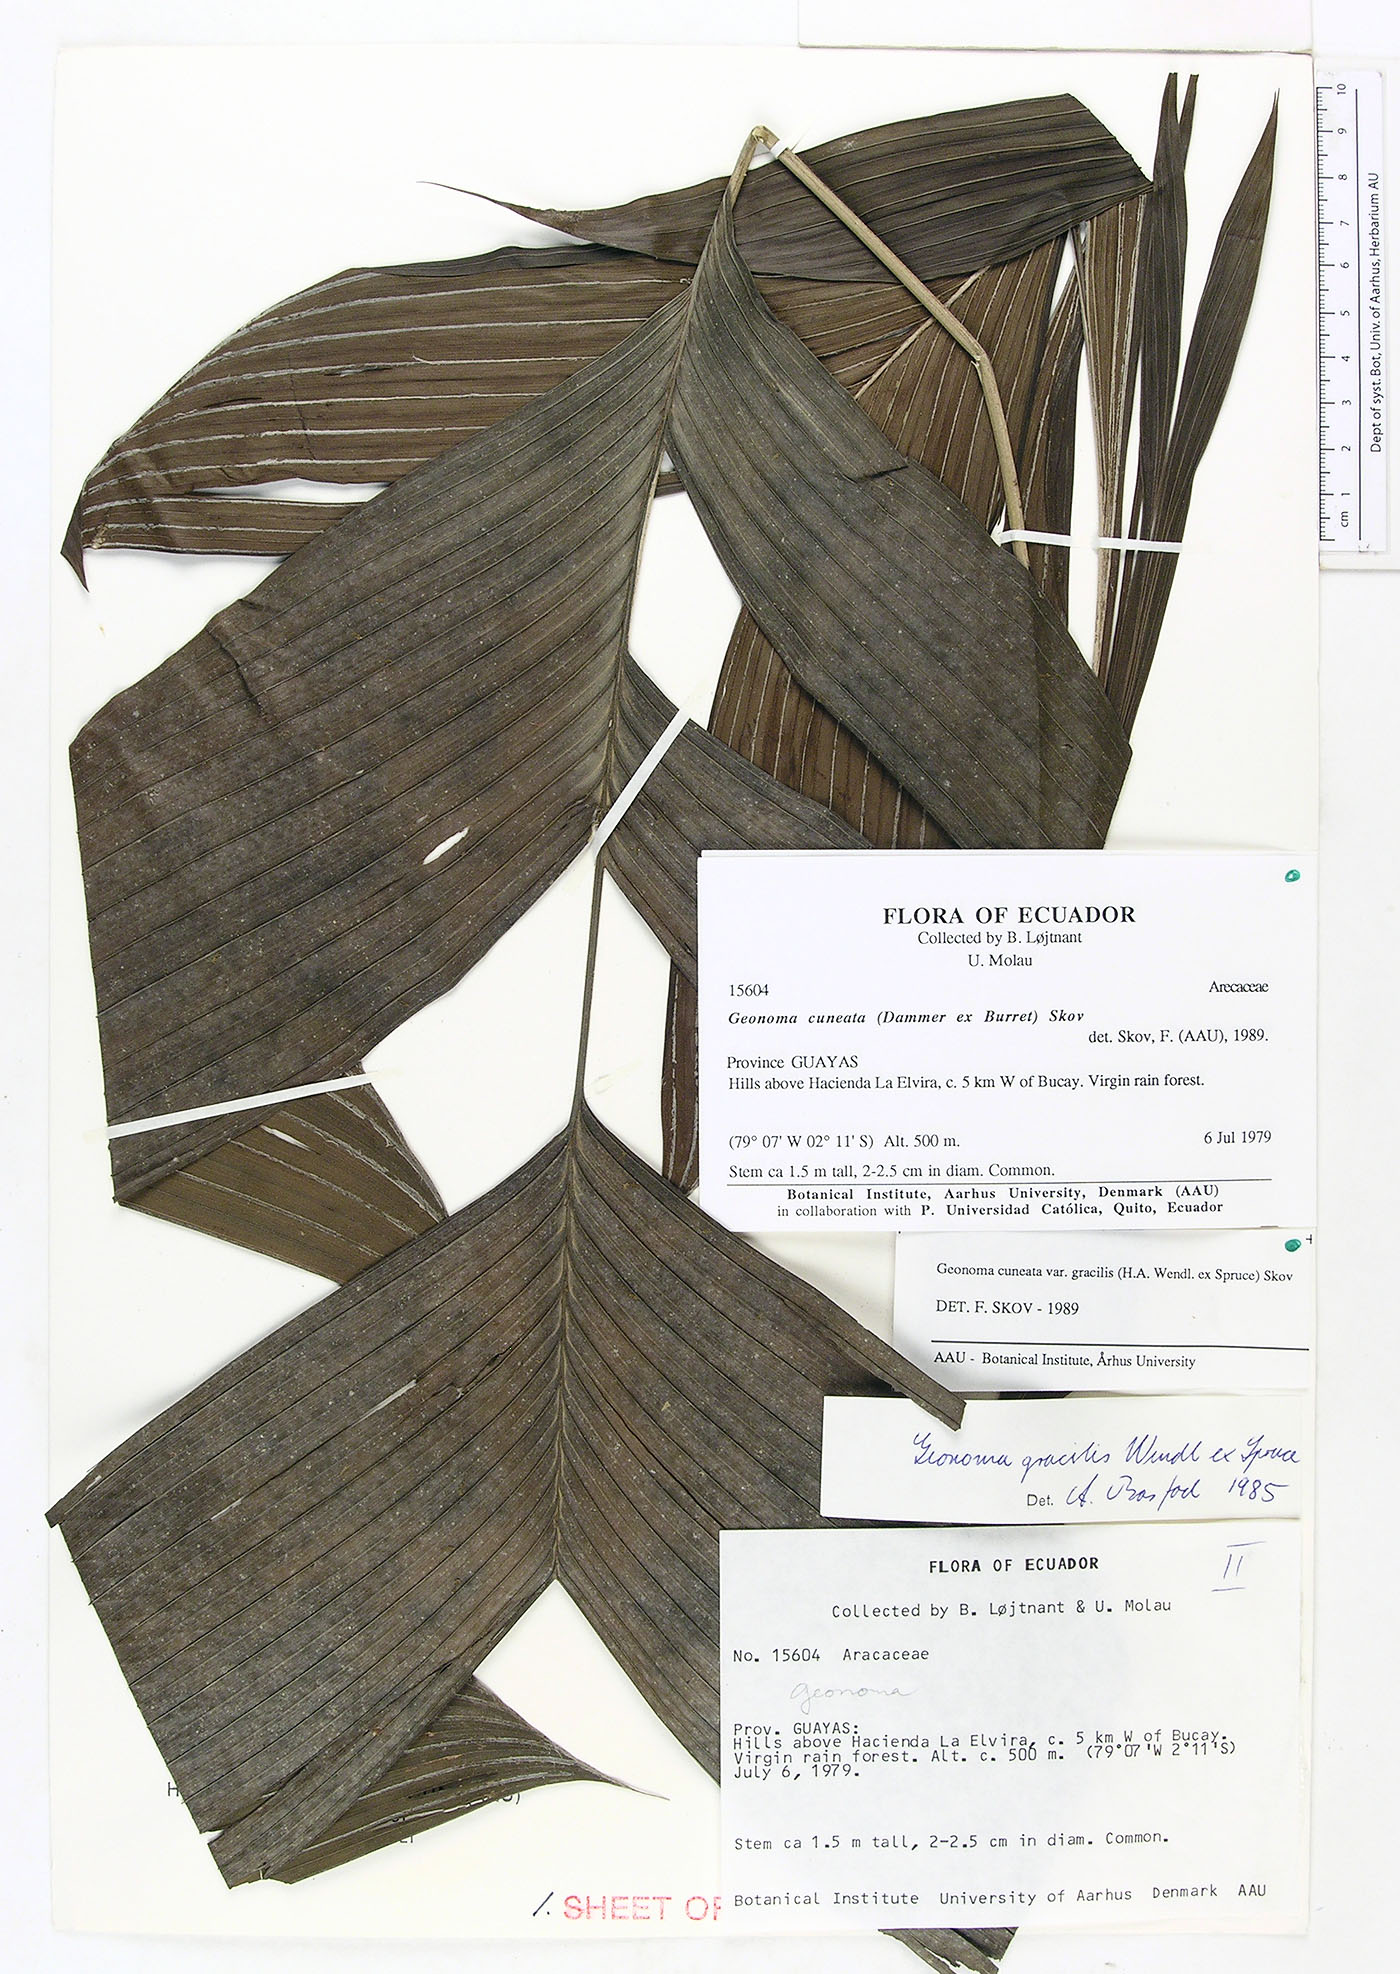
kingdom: Plantae
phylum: Tracheophyta
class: Liliopsida
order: Arecales
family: Arecaceae
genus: Geonoma
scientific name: Geonoma cuneata
